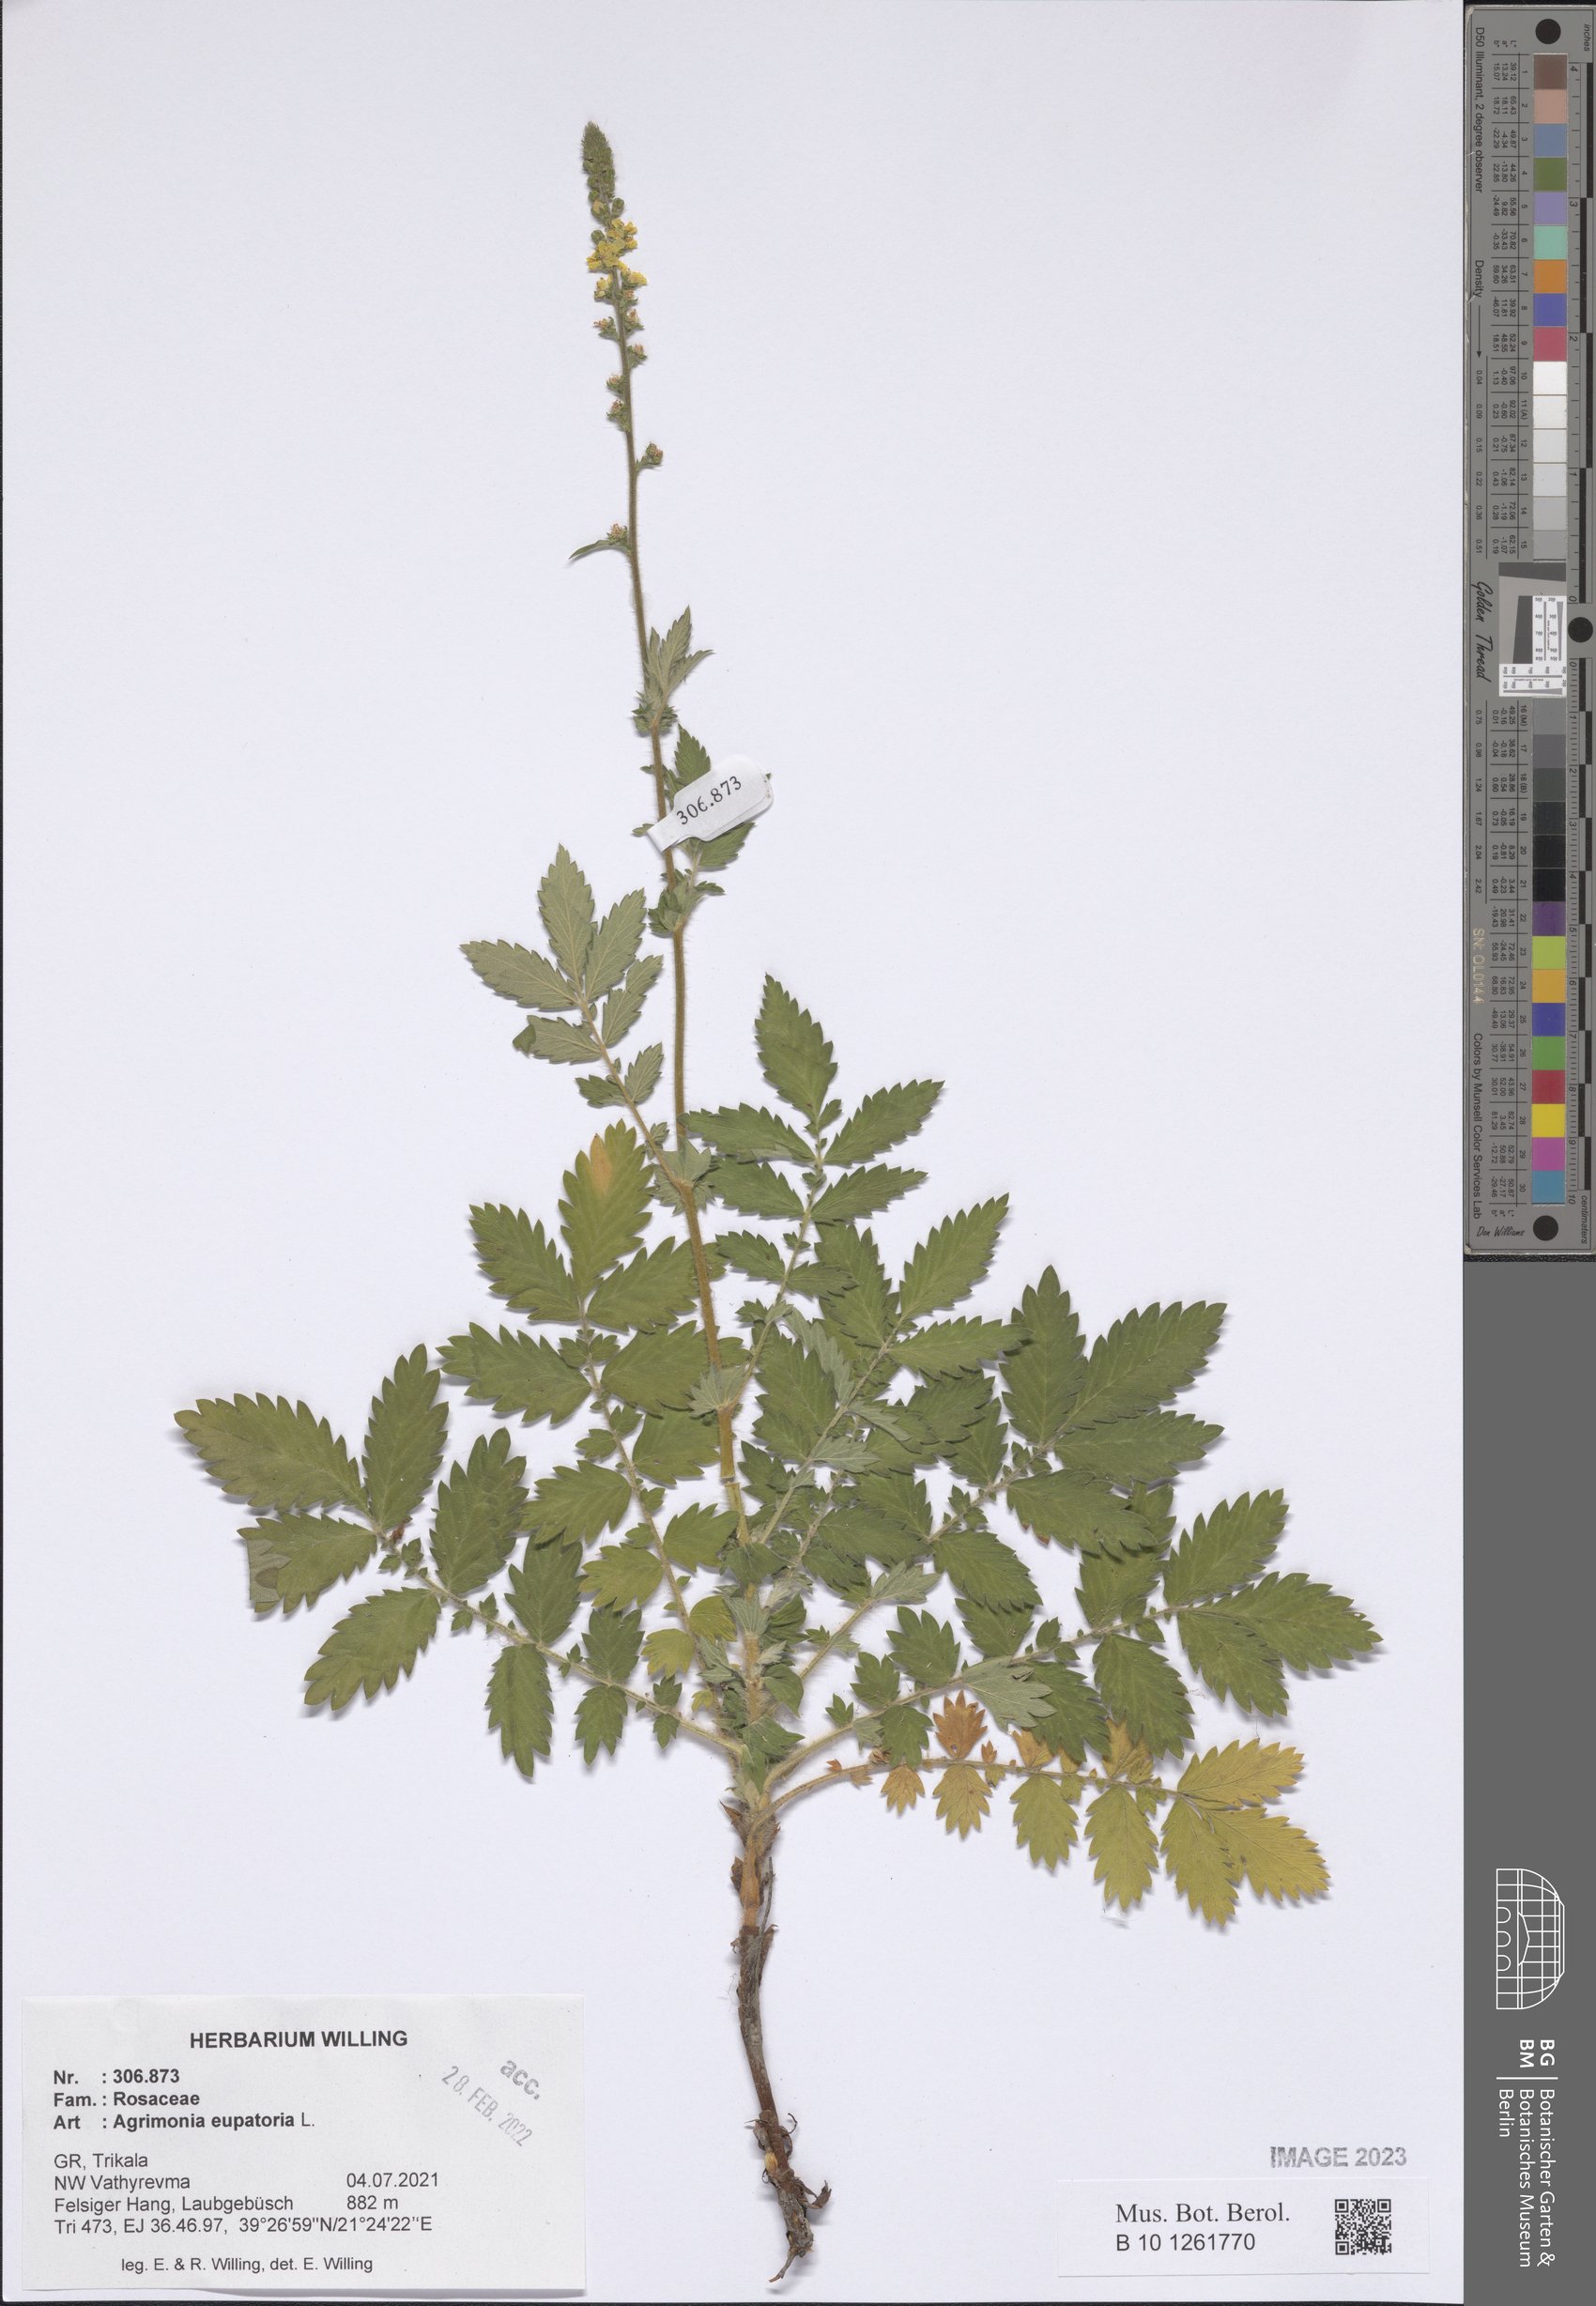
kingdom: Plantae
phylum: Tracheophyta
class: Magnoliopsida
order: Rosales
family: Rosaceae
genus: Agrimonia
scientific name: Agrimonia eupatoria
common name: Agrimony
